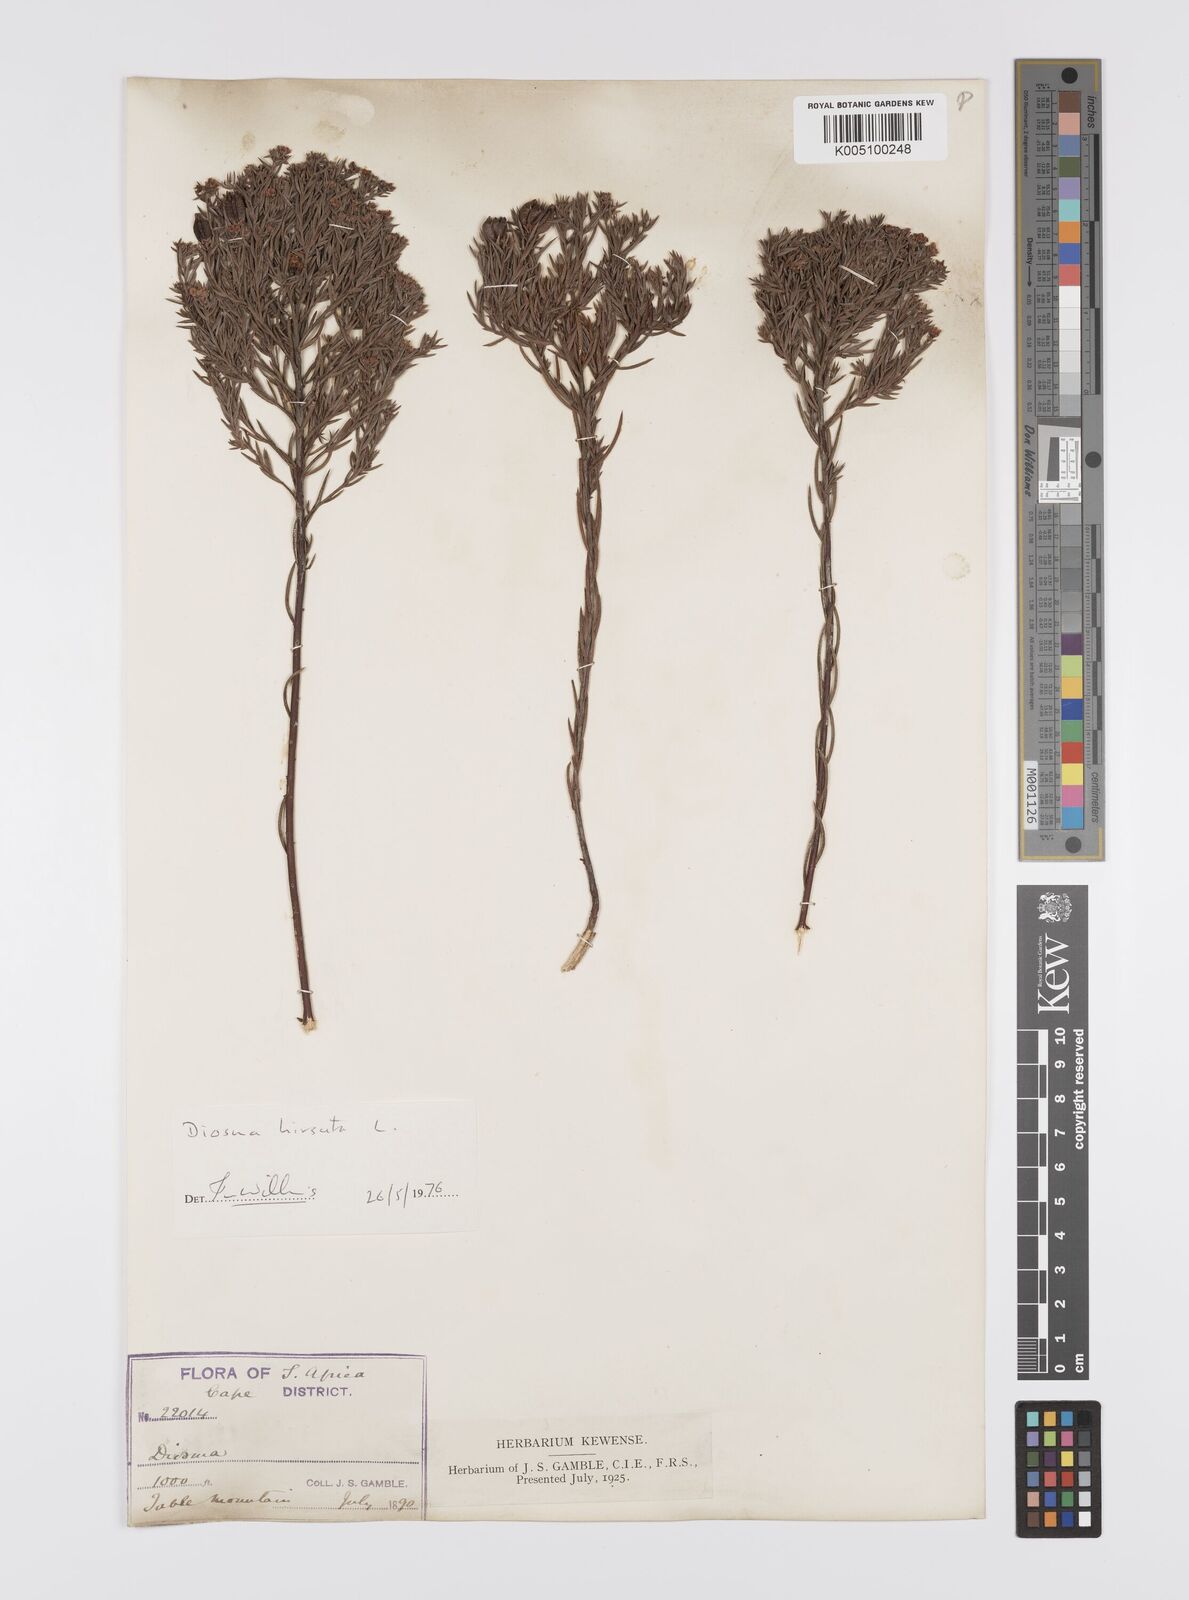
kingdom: Plantae
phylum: Tracheophyta
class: Magnoliopsida
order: Sapindales
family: Rutaceae
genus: Diosma
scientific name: Diosma hirsuta
